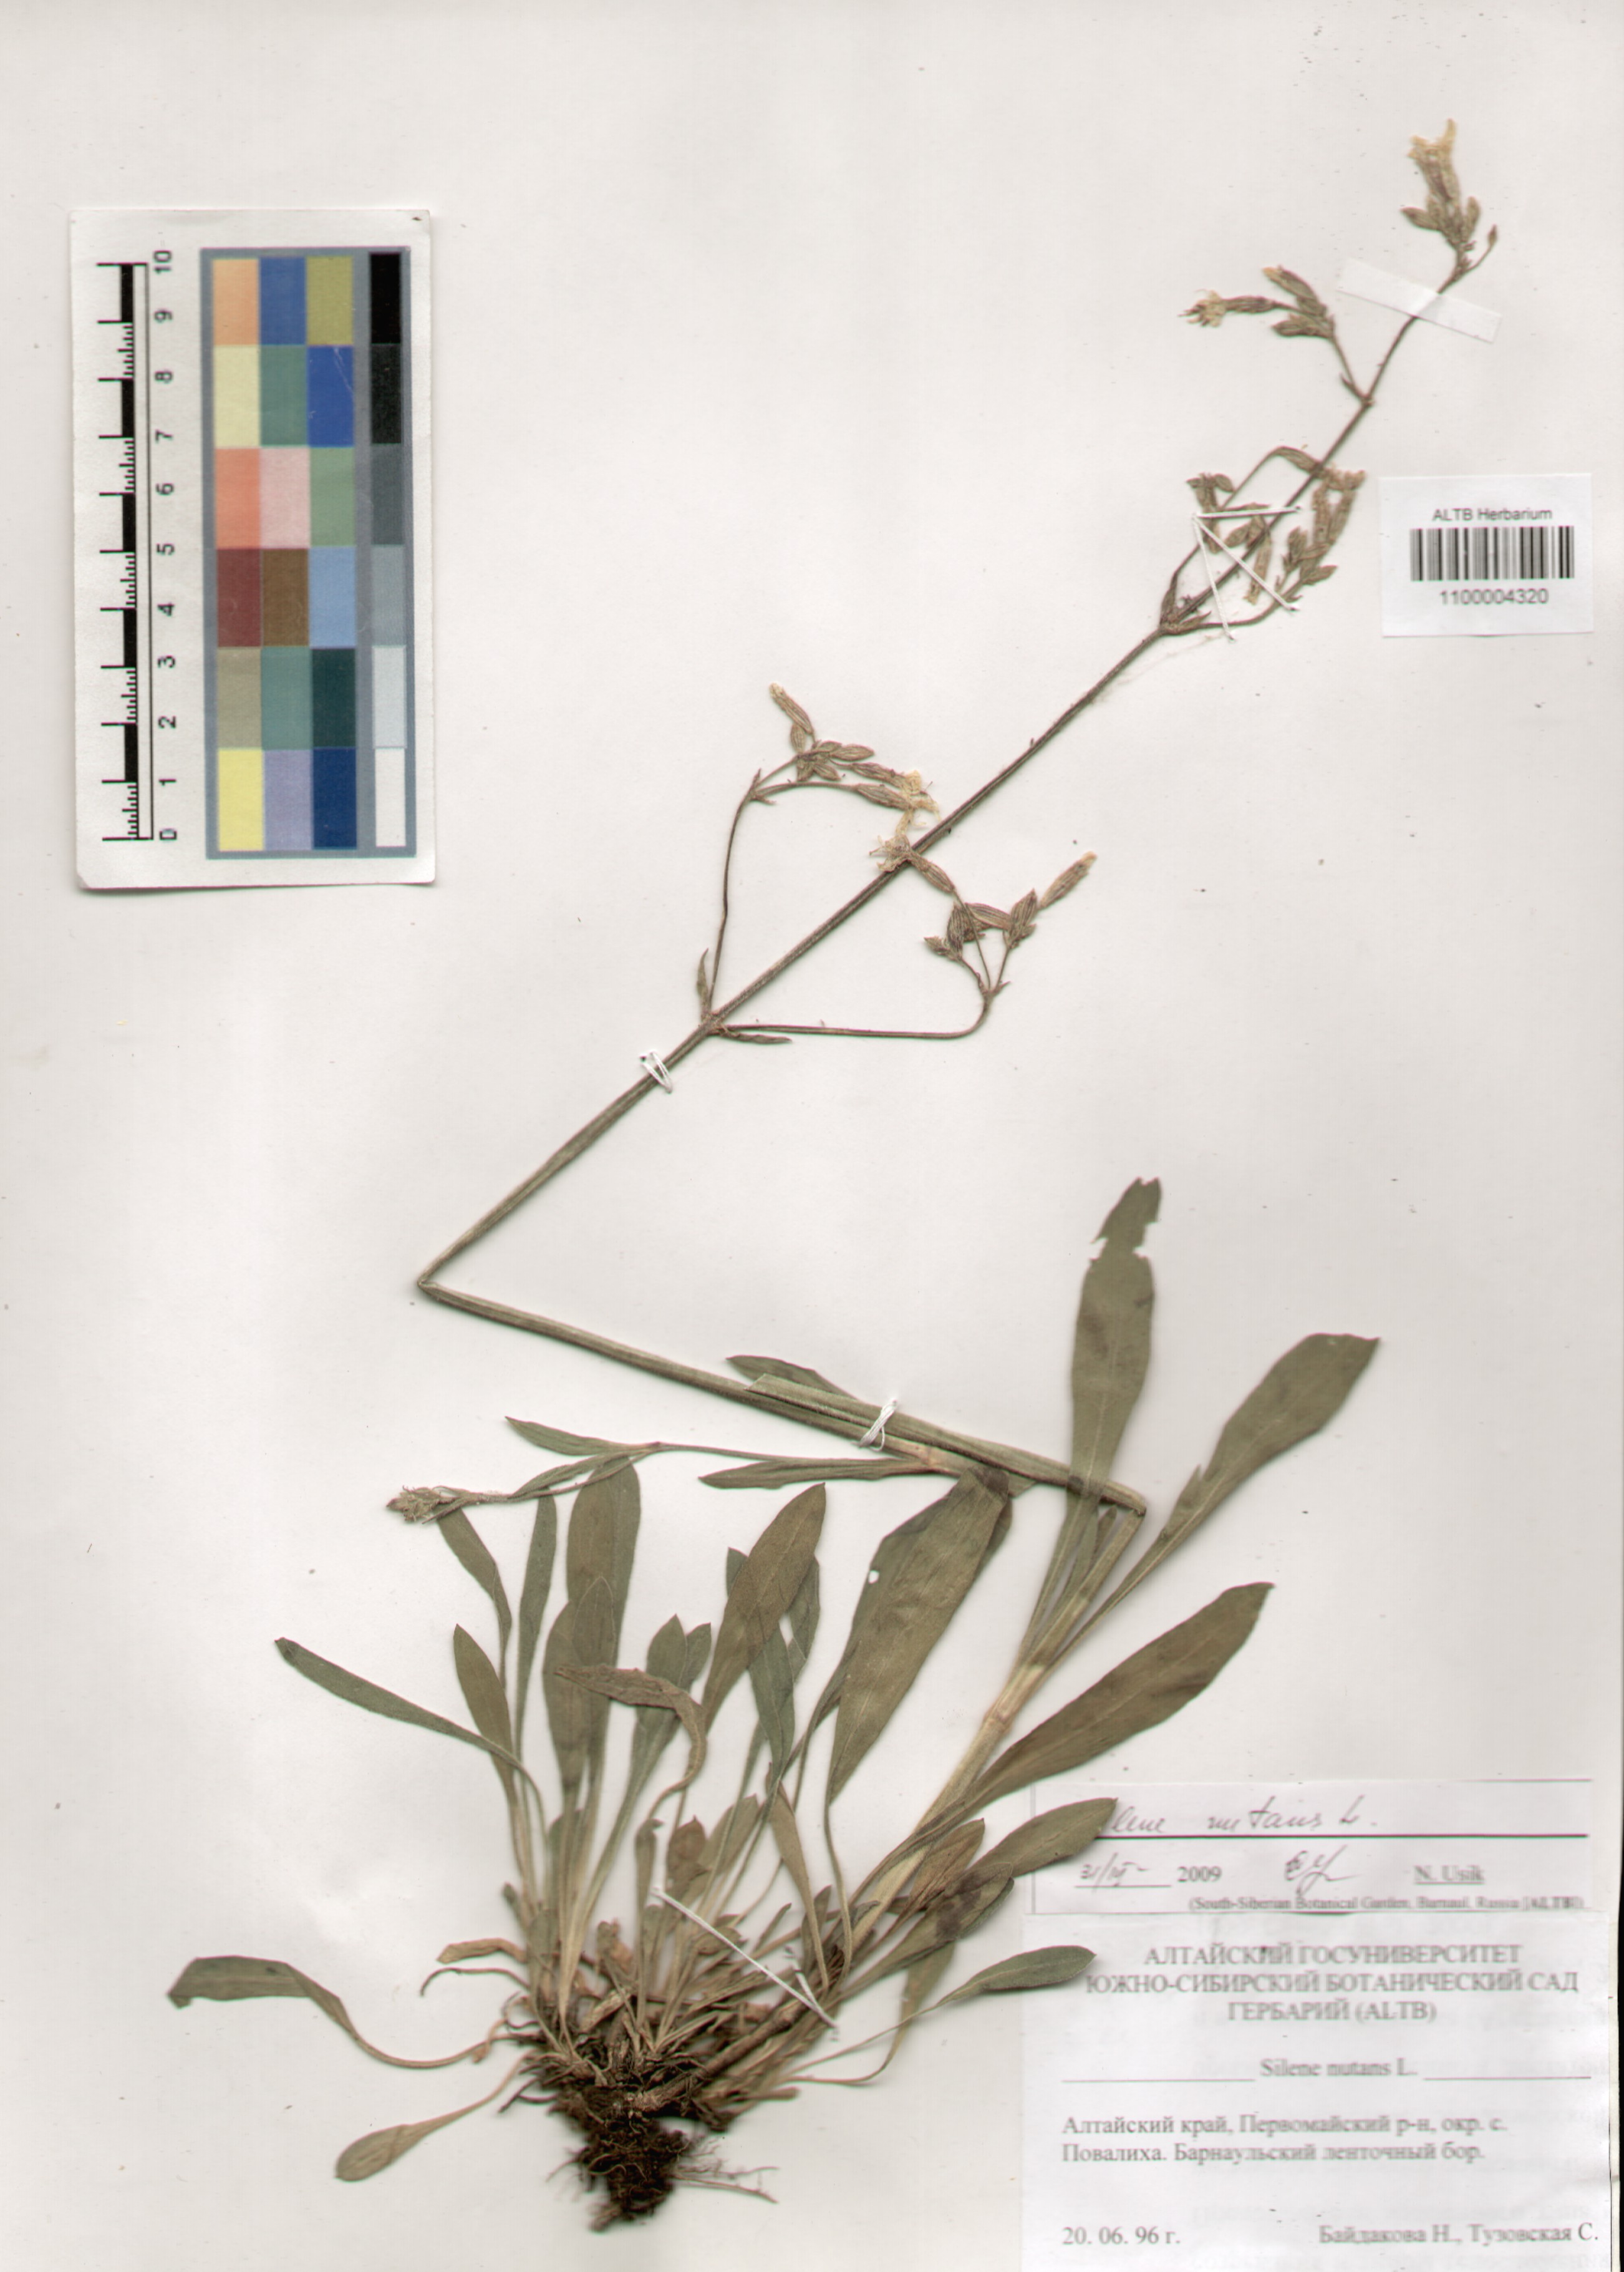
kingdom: Plantae
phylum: Tracheophyta
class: Magnoliopsida
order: Caryophyllales
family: Caryophyllaceae
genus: Silene
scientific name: Silene nutans
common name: Nottingham catchfly
